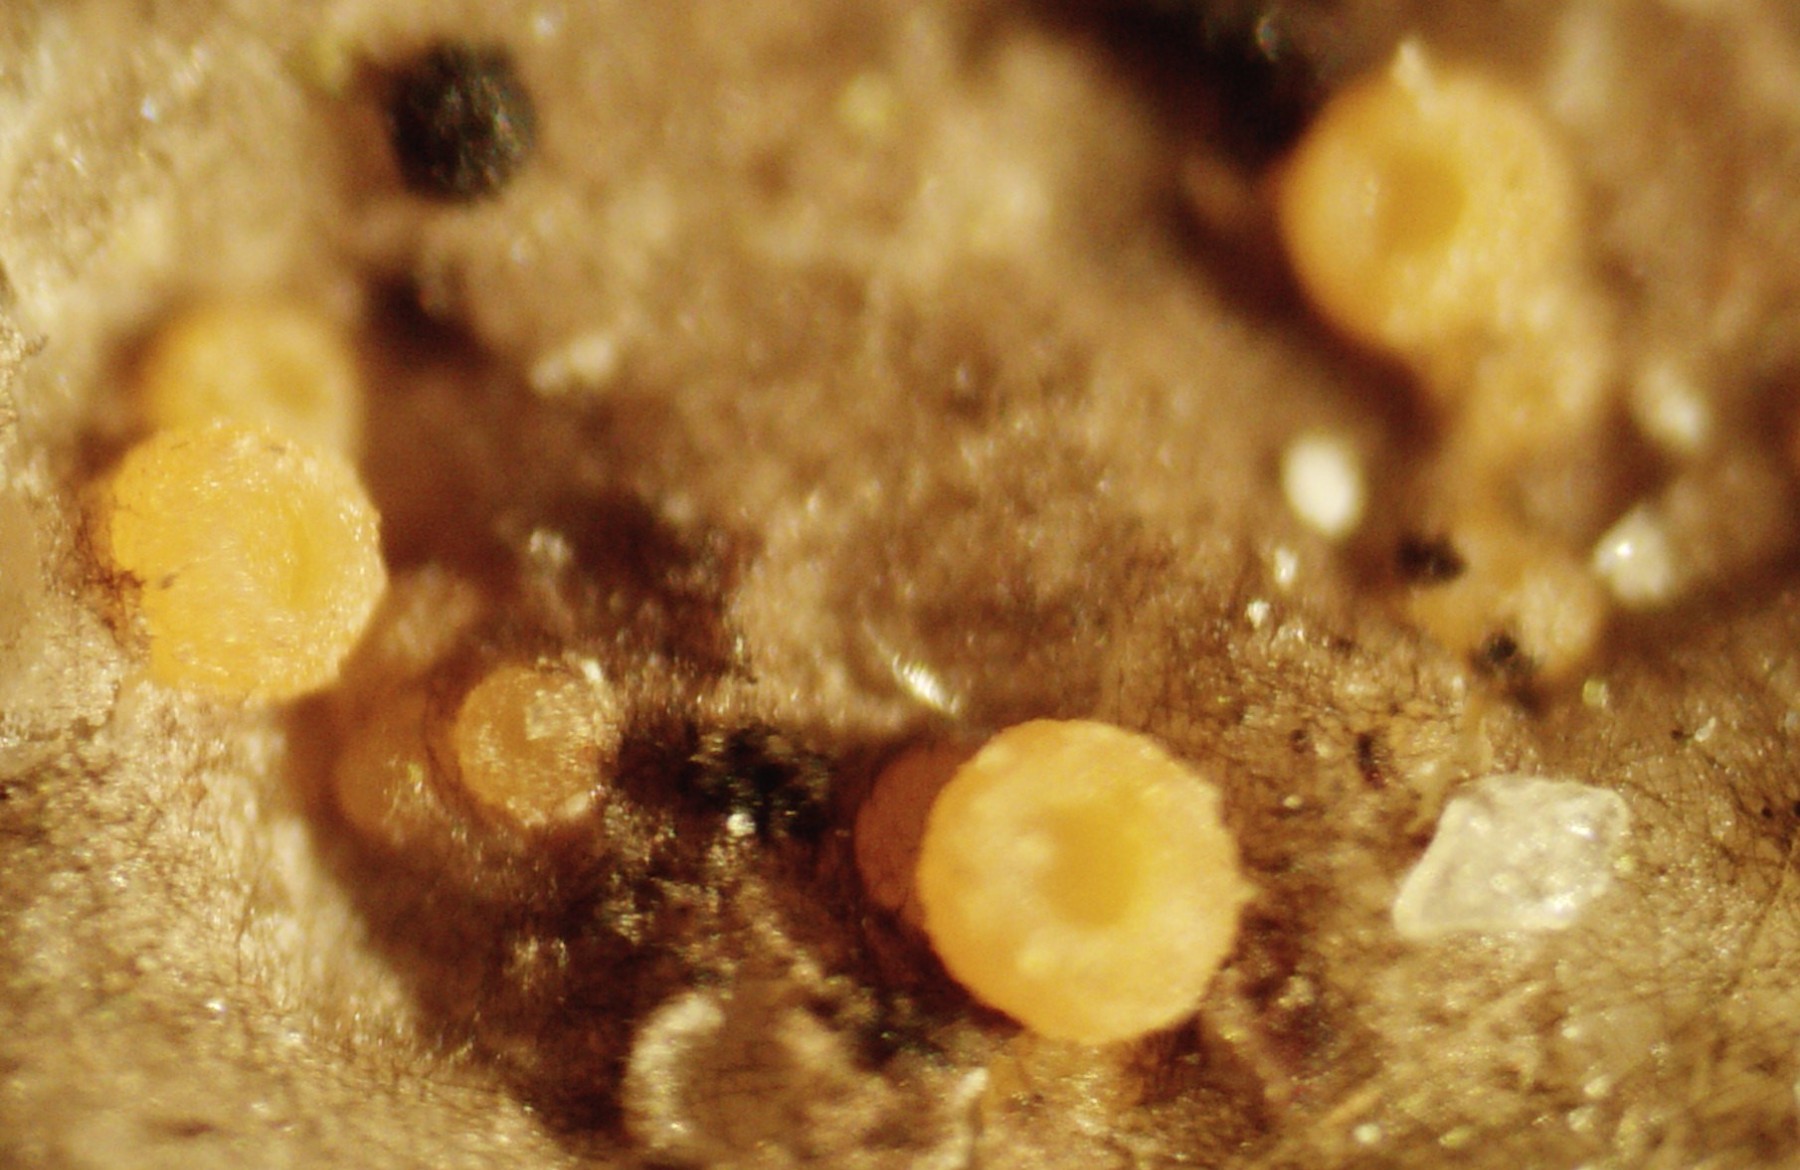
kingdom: Fungi
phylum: Ascomycota
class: Sareomycetes
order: Sareales
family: Sareaceae
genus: Sarea
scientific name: Sarea resinae
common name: orangegul harpiksskive
